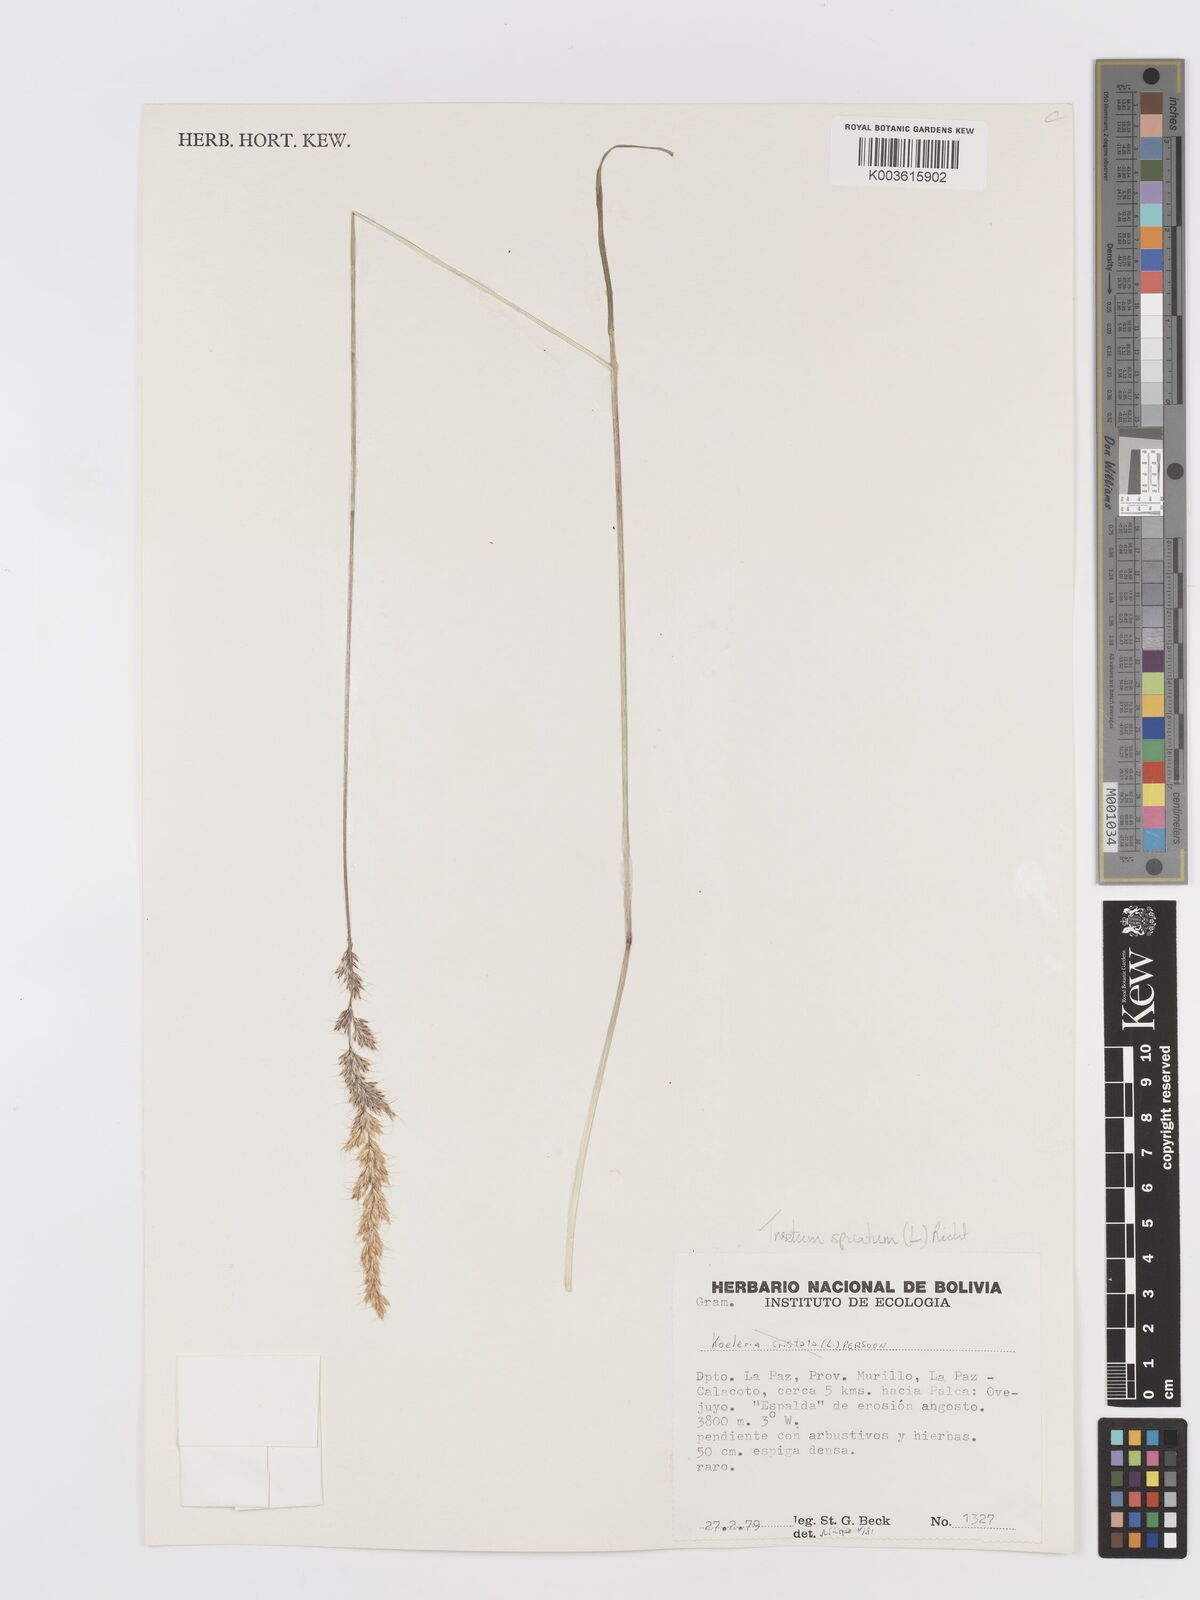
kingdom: Plantae
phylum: Tracheophyta
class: Liliopsida
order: Poales
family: Poaceae
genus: Koeleria
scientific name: Koeleria spicata
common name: Mountain trisetum
